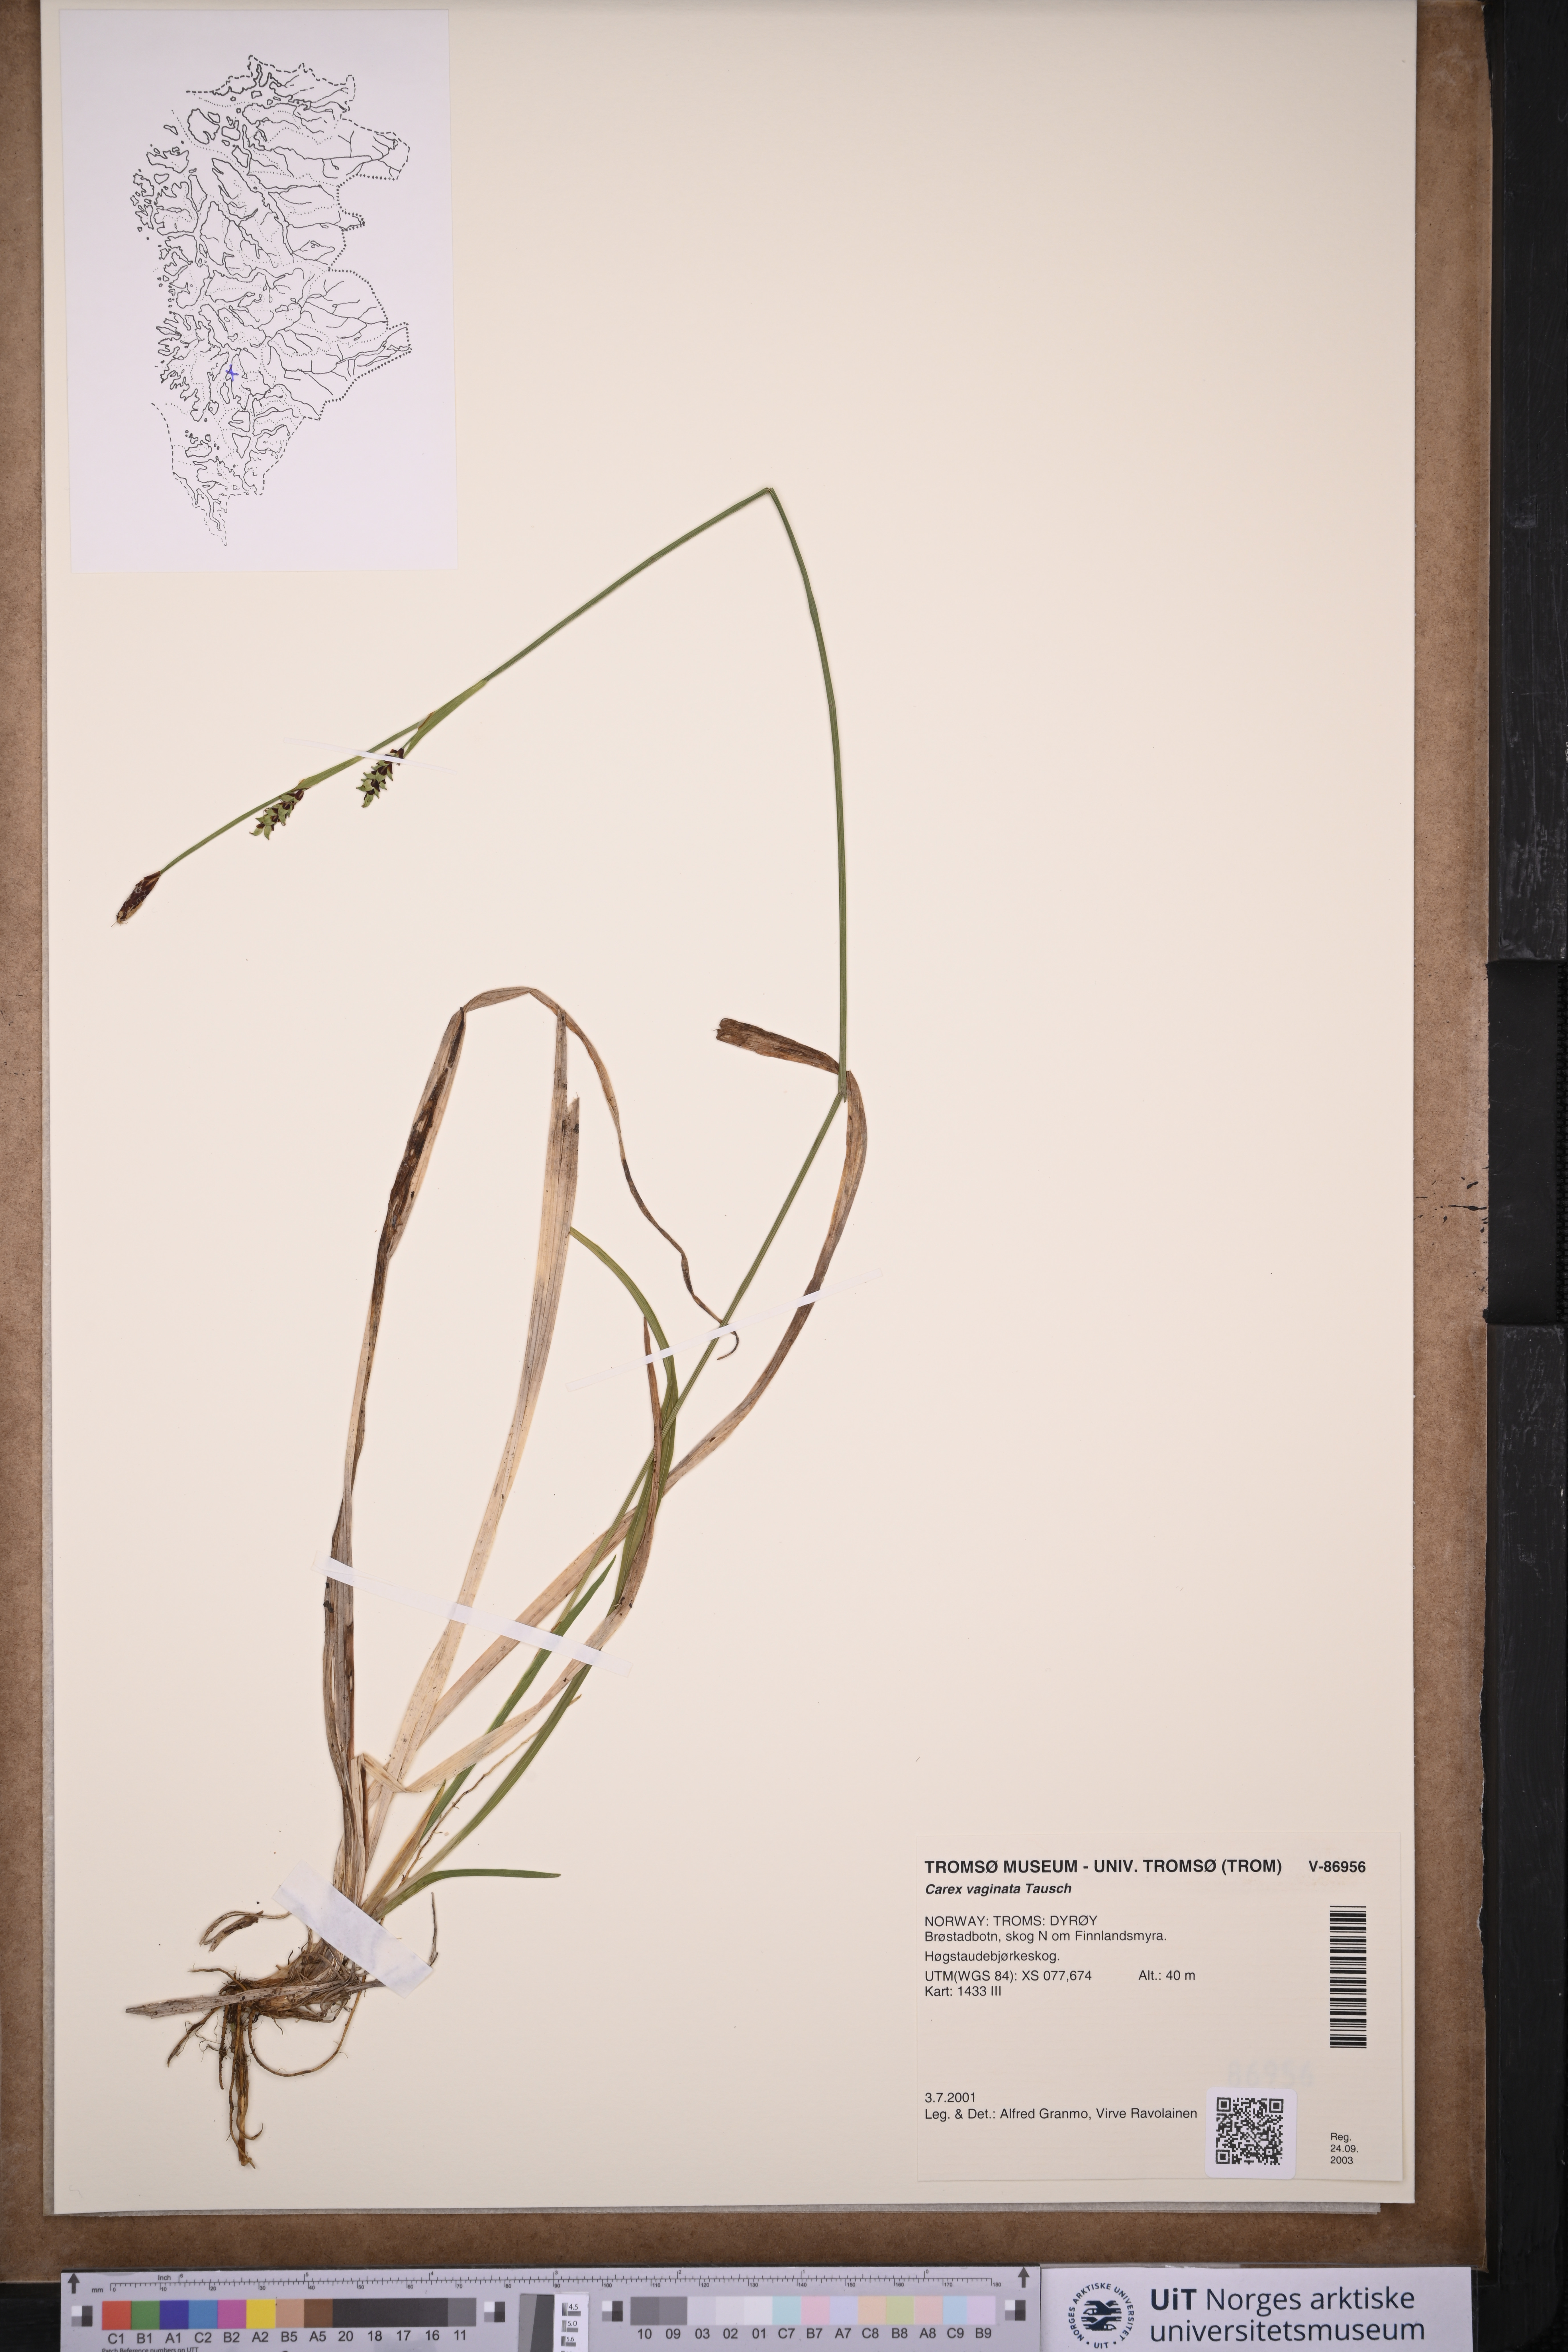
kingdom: Plantae
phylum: Tracheophyta
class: Liliopsida
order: Poales
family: Cyperaceae
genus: Carex
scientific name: Carex vaginata
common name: Sheathed sedge
